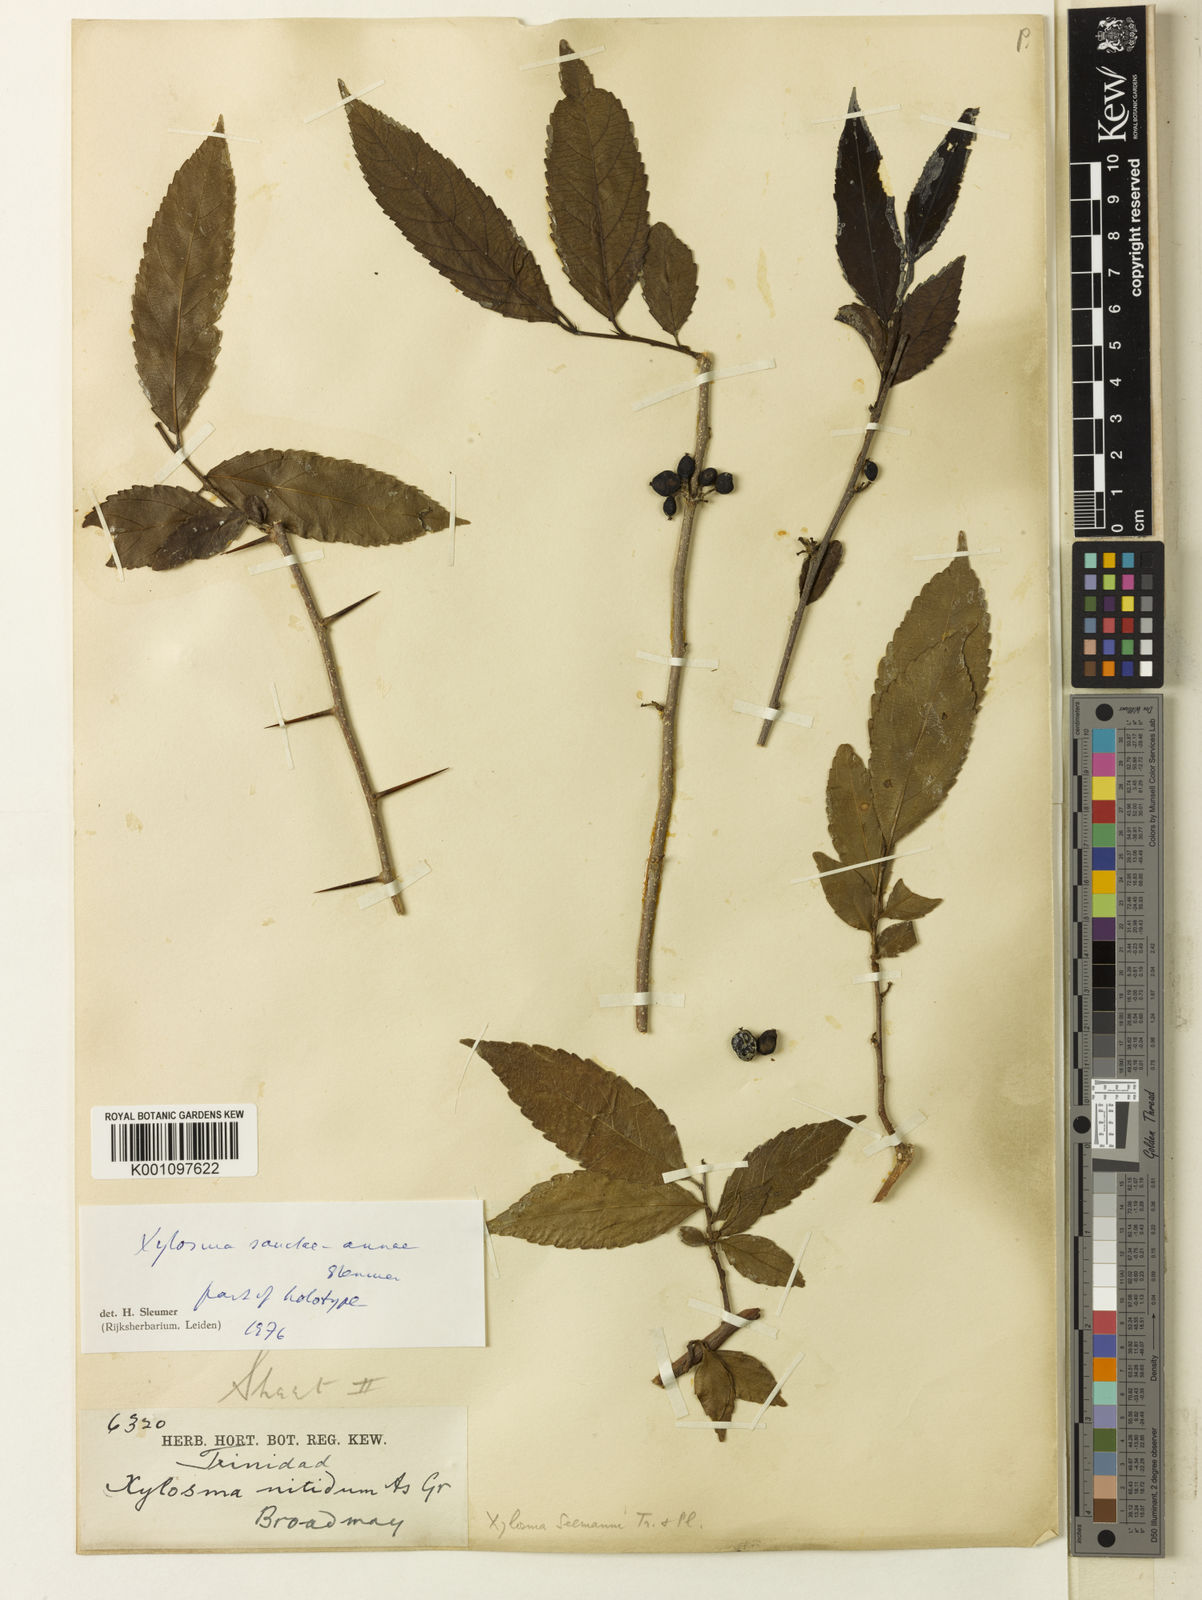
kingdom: Plantae
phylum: Tracheophyta
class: Magnoliopsida
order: Malpighiales
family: Salicaceae
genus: Xylosma
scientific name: Xylosma sanctae-annae
